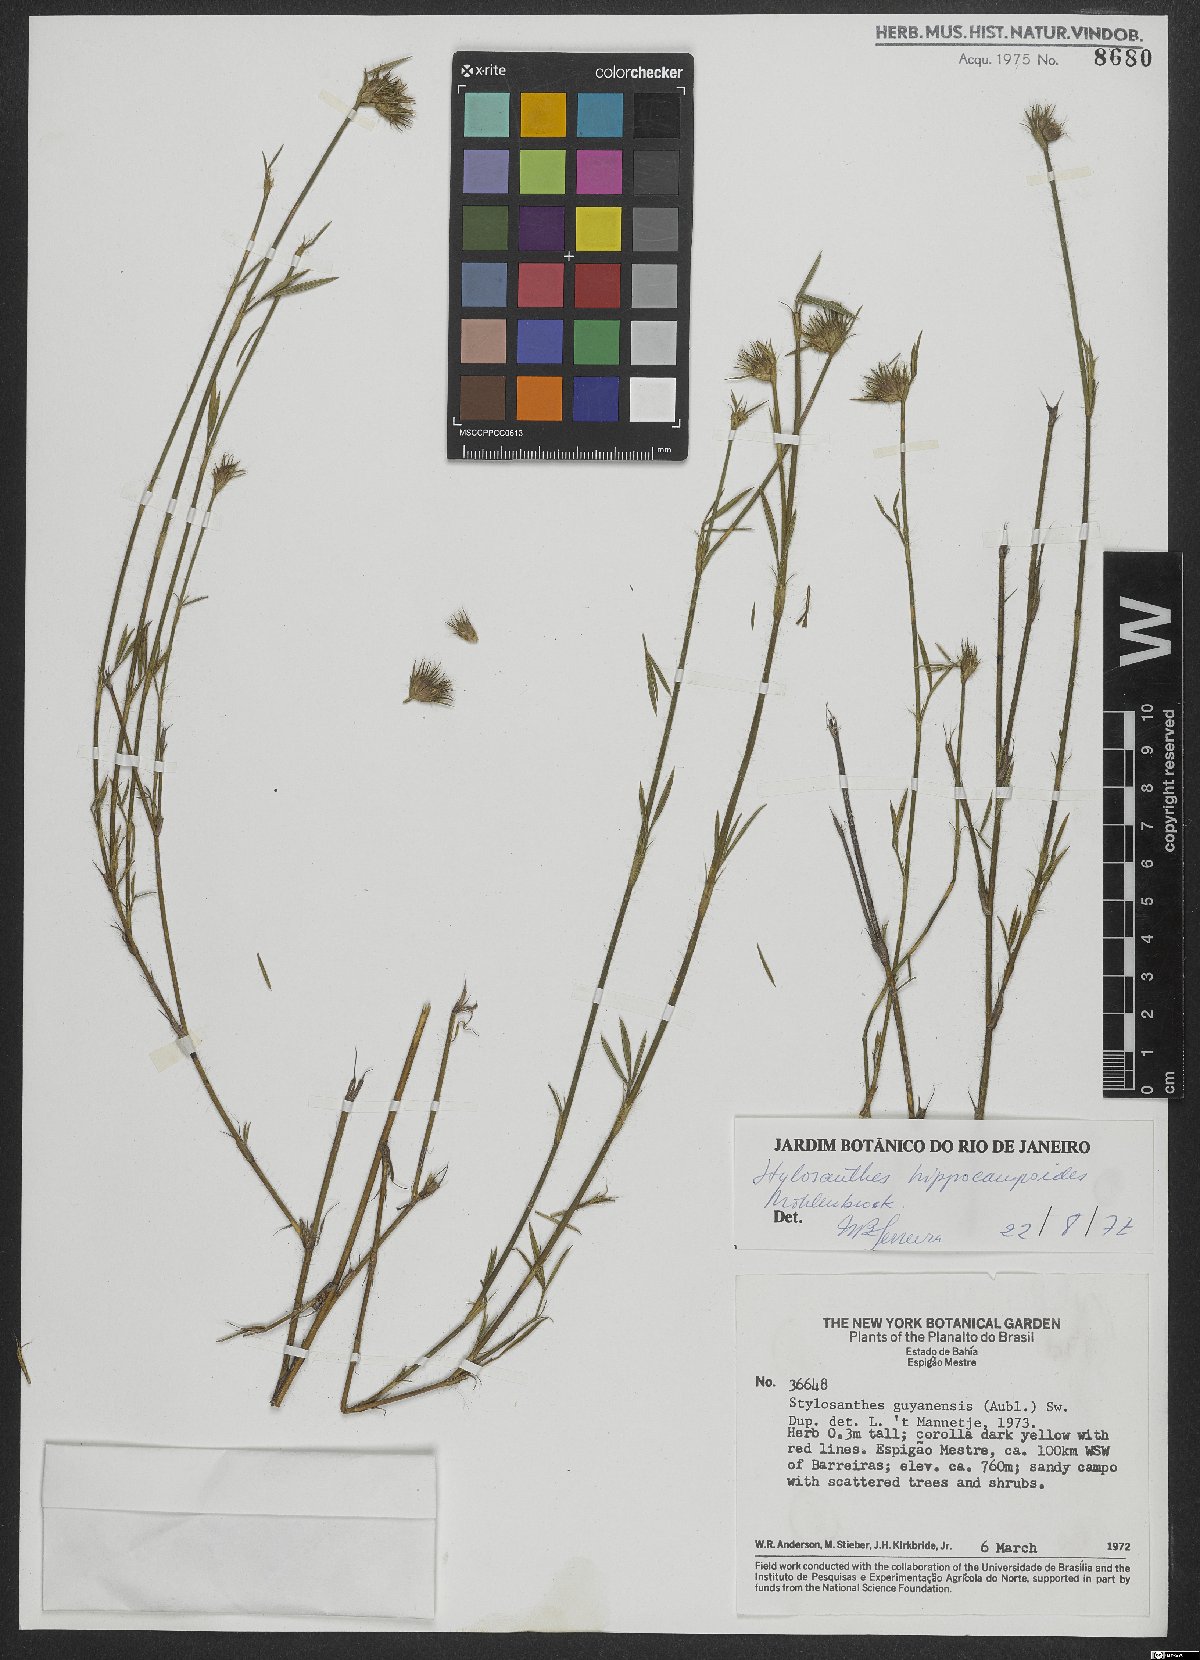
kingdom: Plantae
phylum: Tracheophyta
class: Magnoliopsida
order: Fabales
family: Fabaceae
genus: Stylosanthes
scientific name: Stylosanthes hippocampoides
